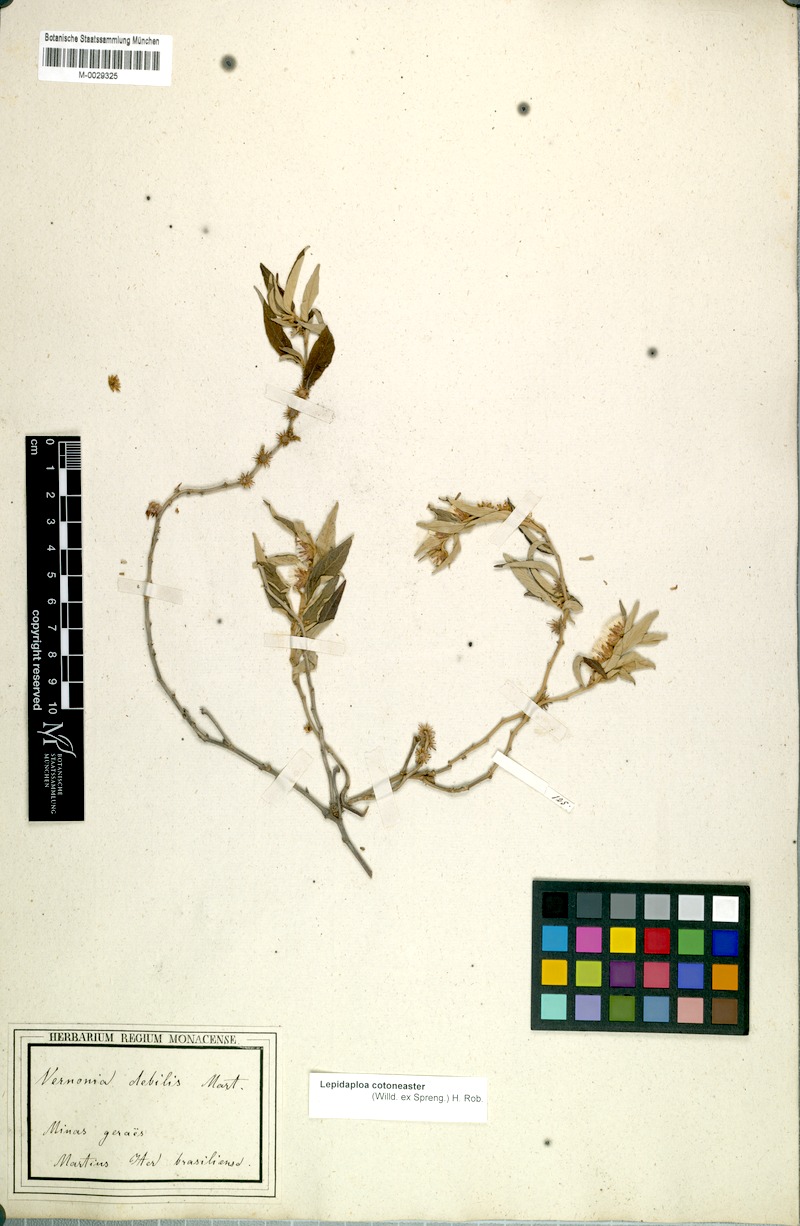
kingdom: Plantae
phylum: Tracheophyta
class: Magnoliopsida
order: Asterales
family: Asteraceae
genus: Lepidaploa
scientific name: Lepidaploa cotoneaster
